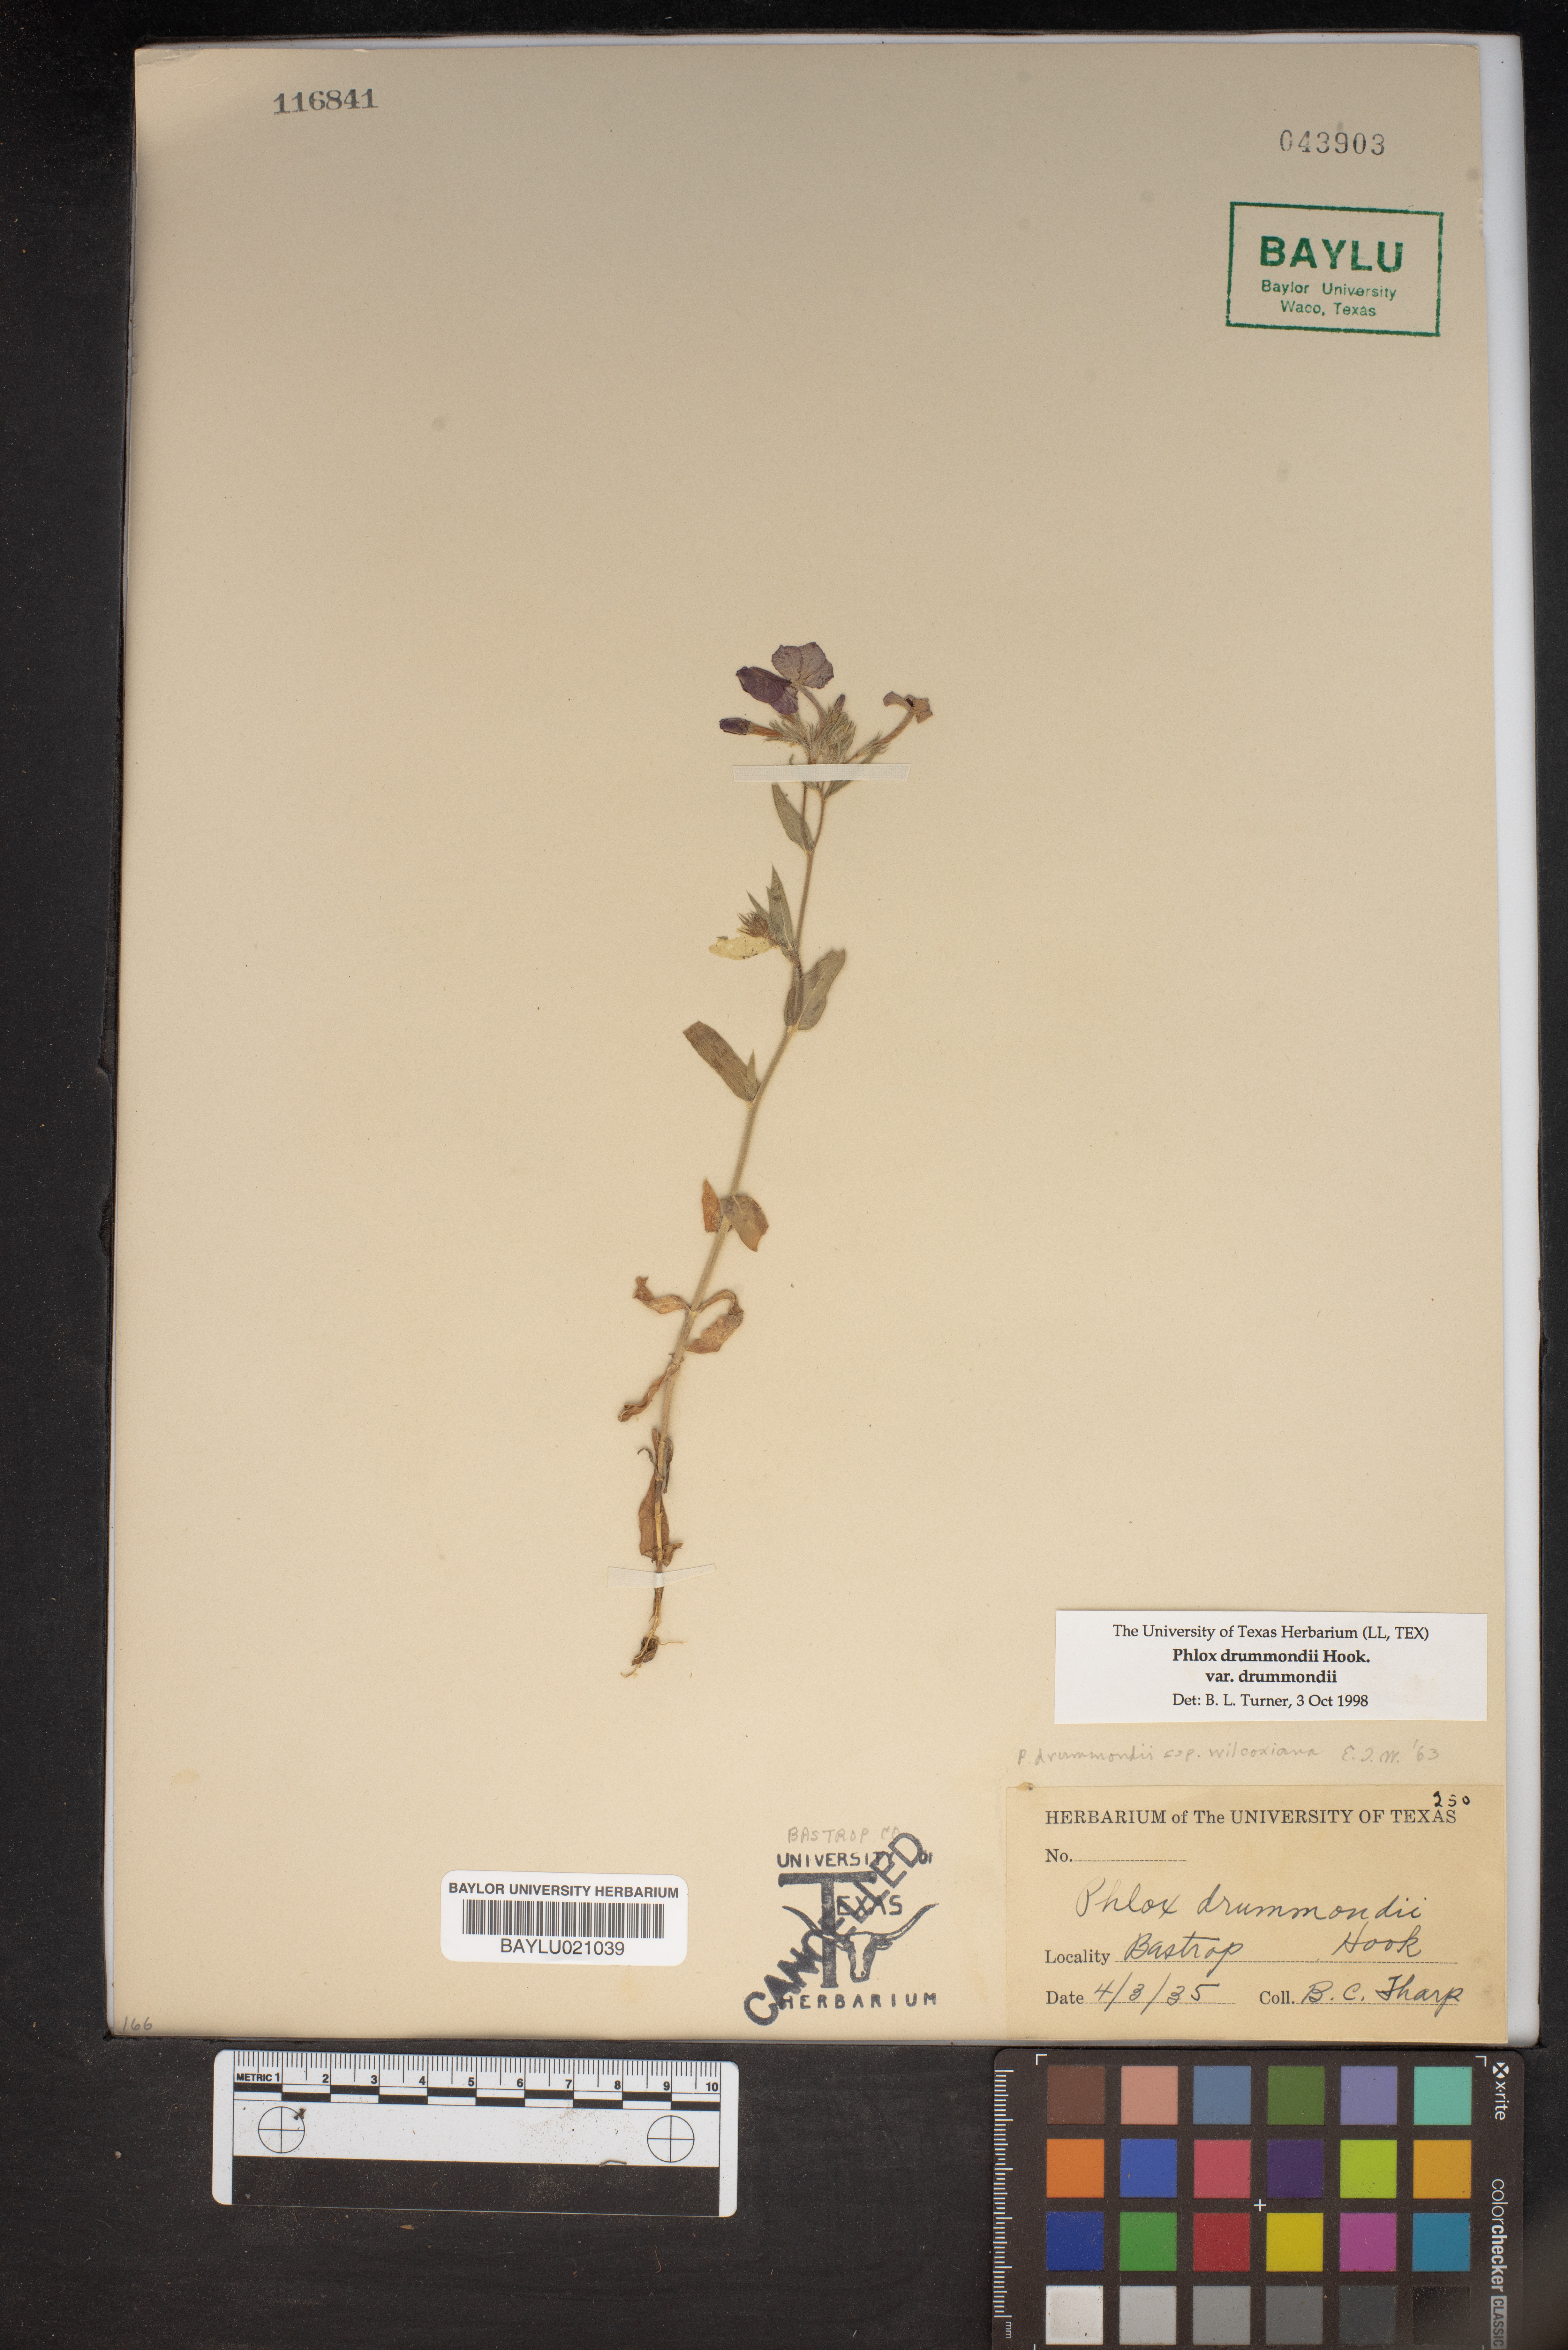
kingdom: Plantae
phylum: Tracheophyta
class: Magnoliopsida
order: Ericales
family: Polemoniaceae
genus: Phlox
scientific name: Phlox drummondii
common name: Drummond's phlox
